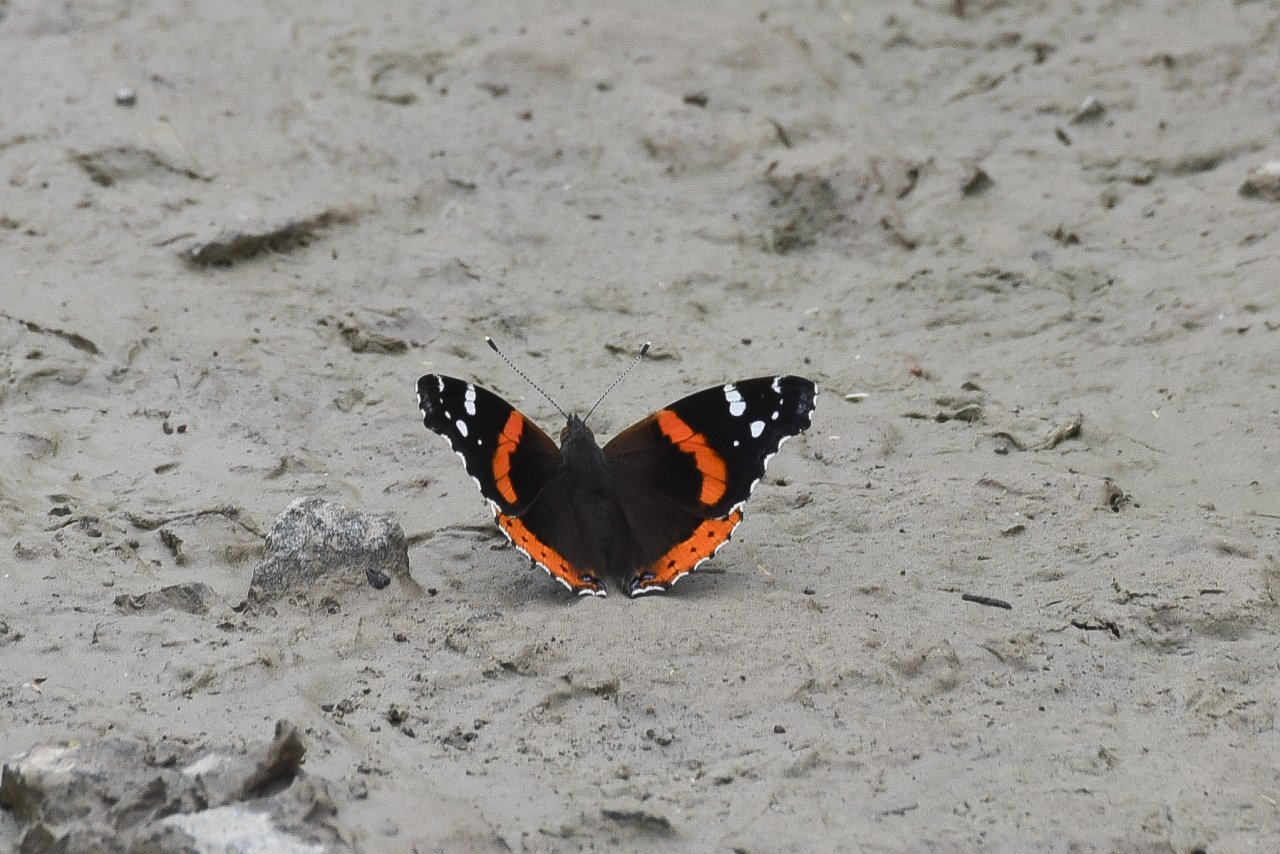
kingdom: Animalia
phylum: Arthropoda
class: Insecta
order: Lepidoptera
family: Nymphalidae
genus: Vanessa
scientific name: Vanessa atalanta
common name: Red Admiral
